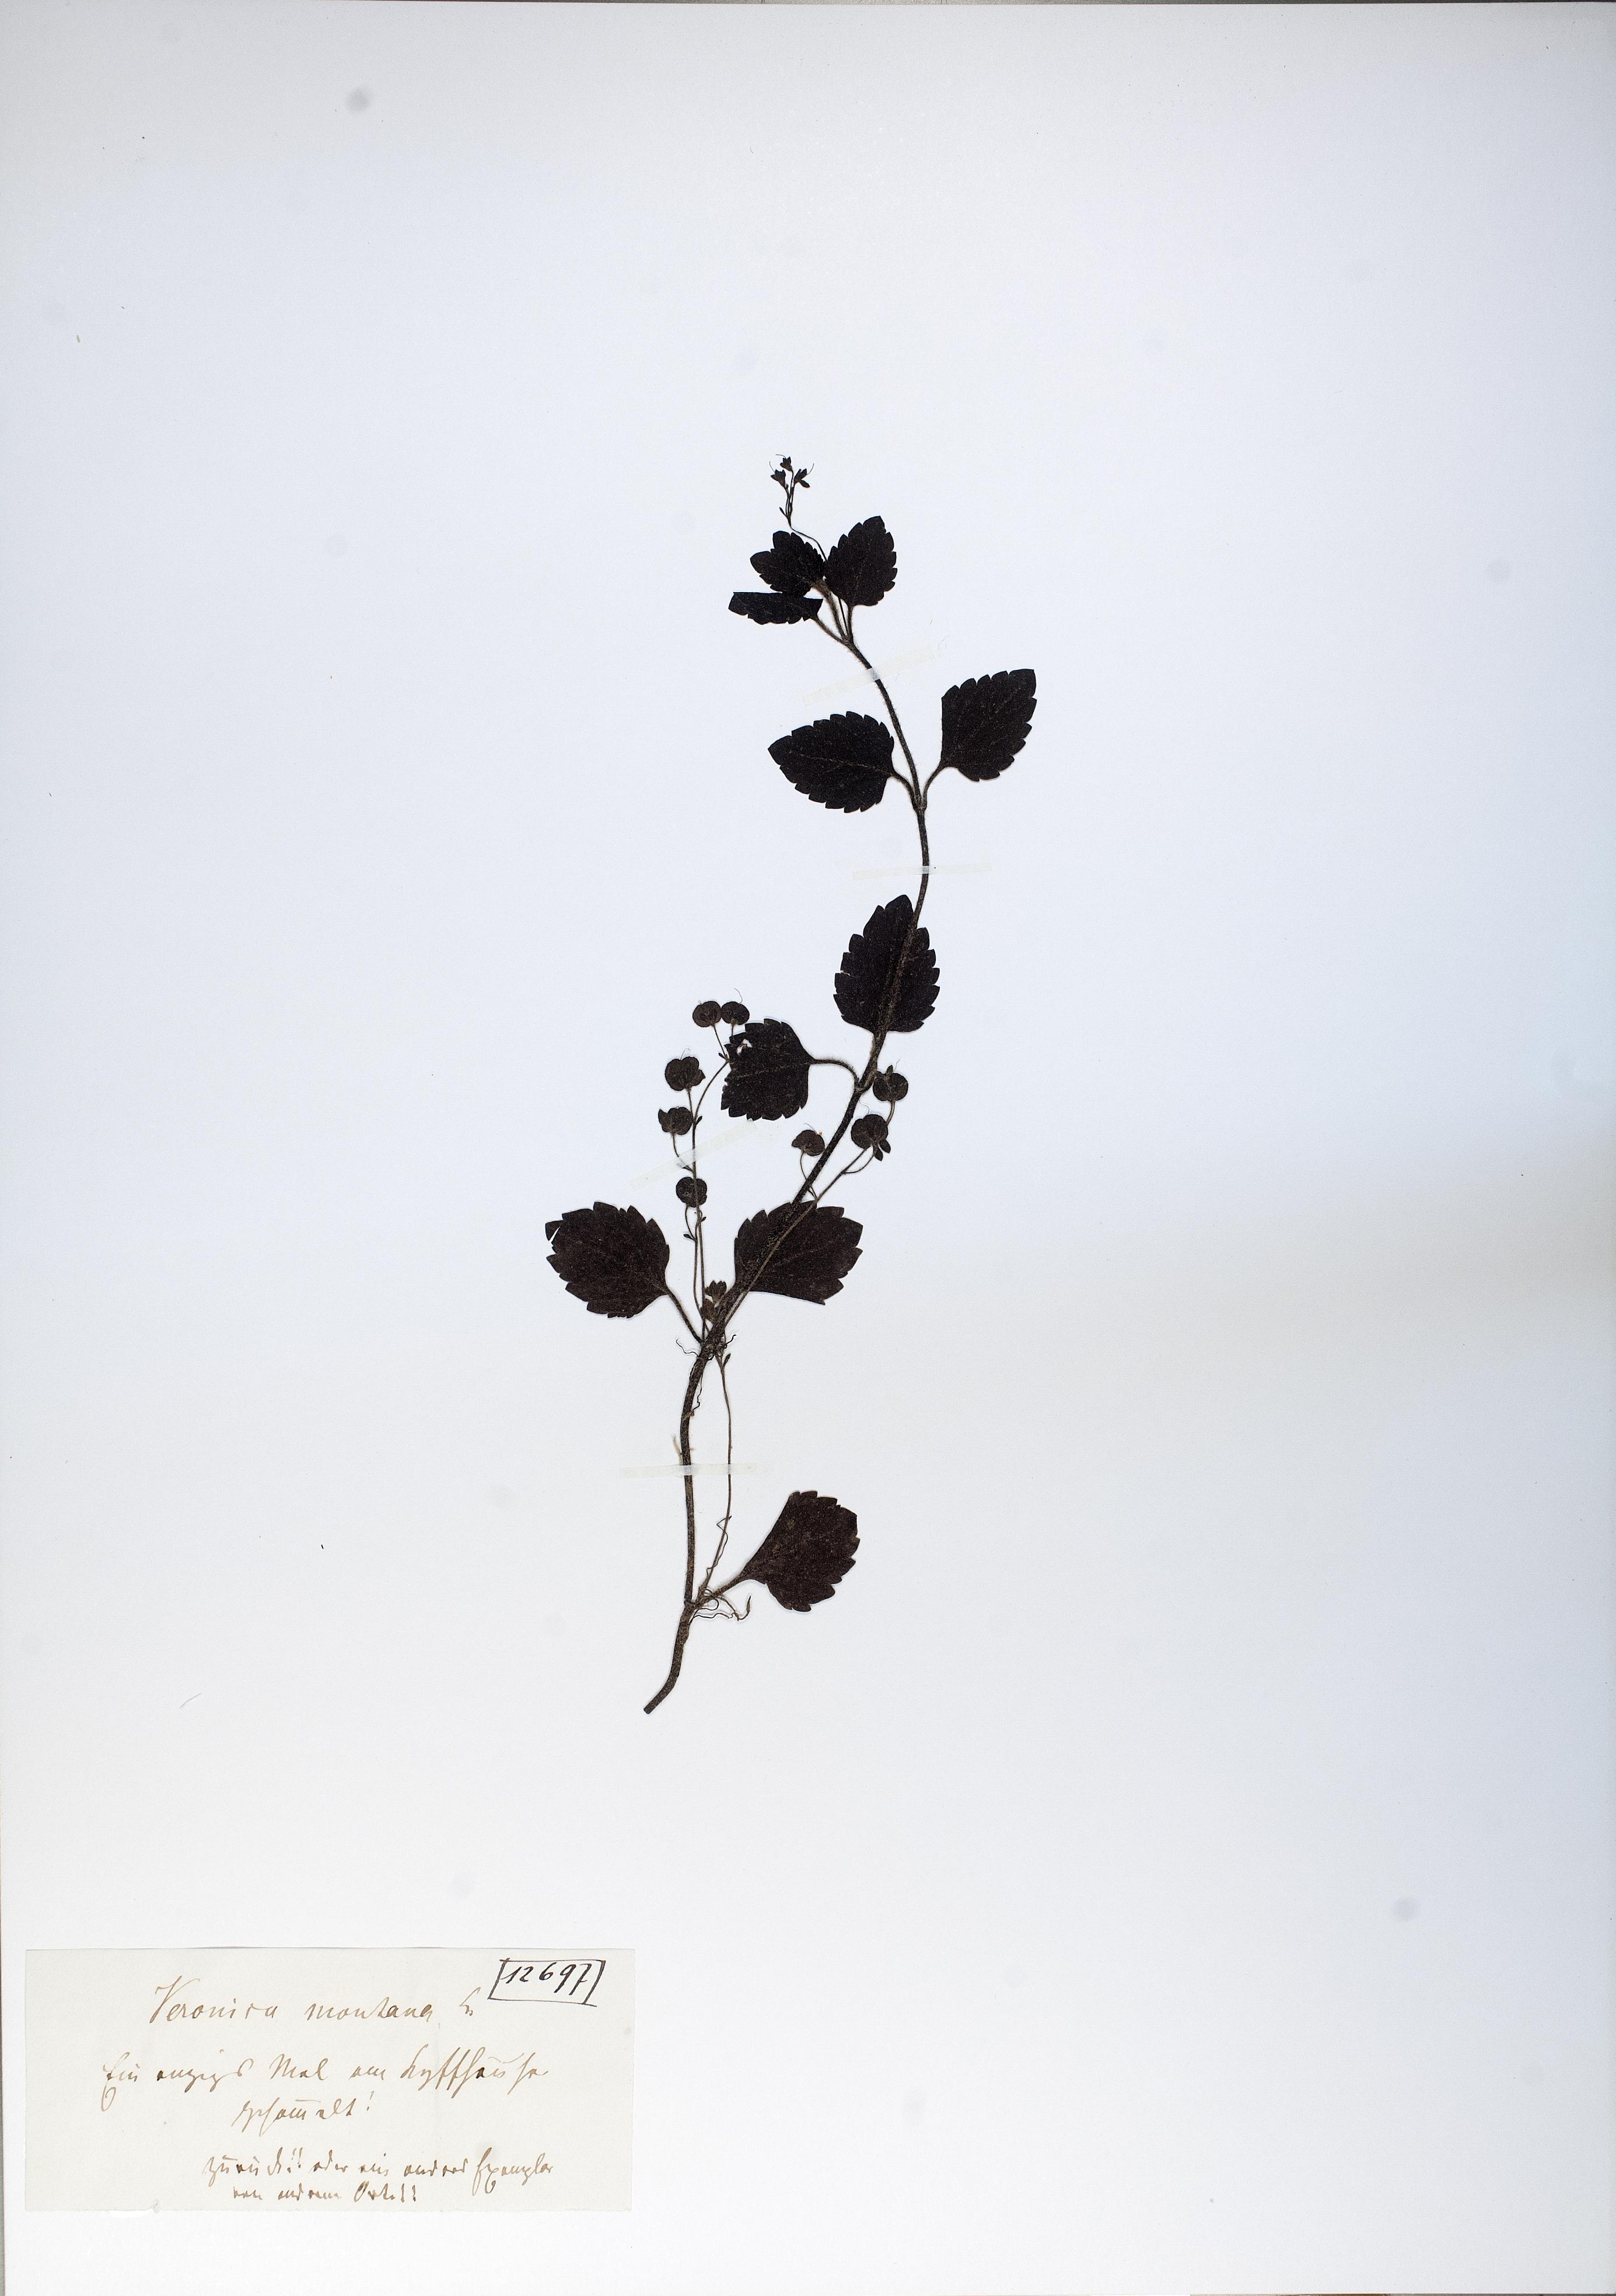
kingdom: Plantae
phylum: Tracheophyta
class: Magnoliopsida
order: Lamiales
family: Plantaginaceae
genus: Veronica
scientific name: Veronica montana
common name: Wood speedwell
